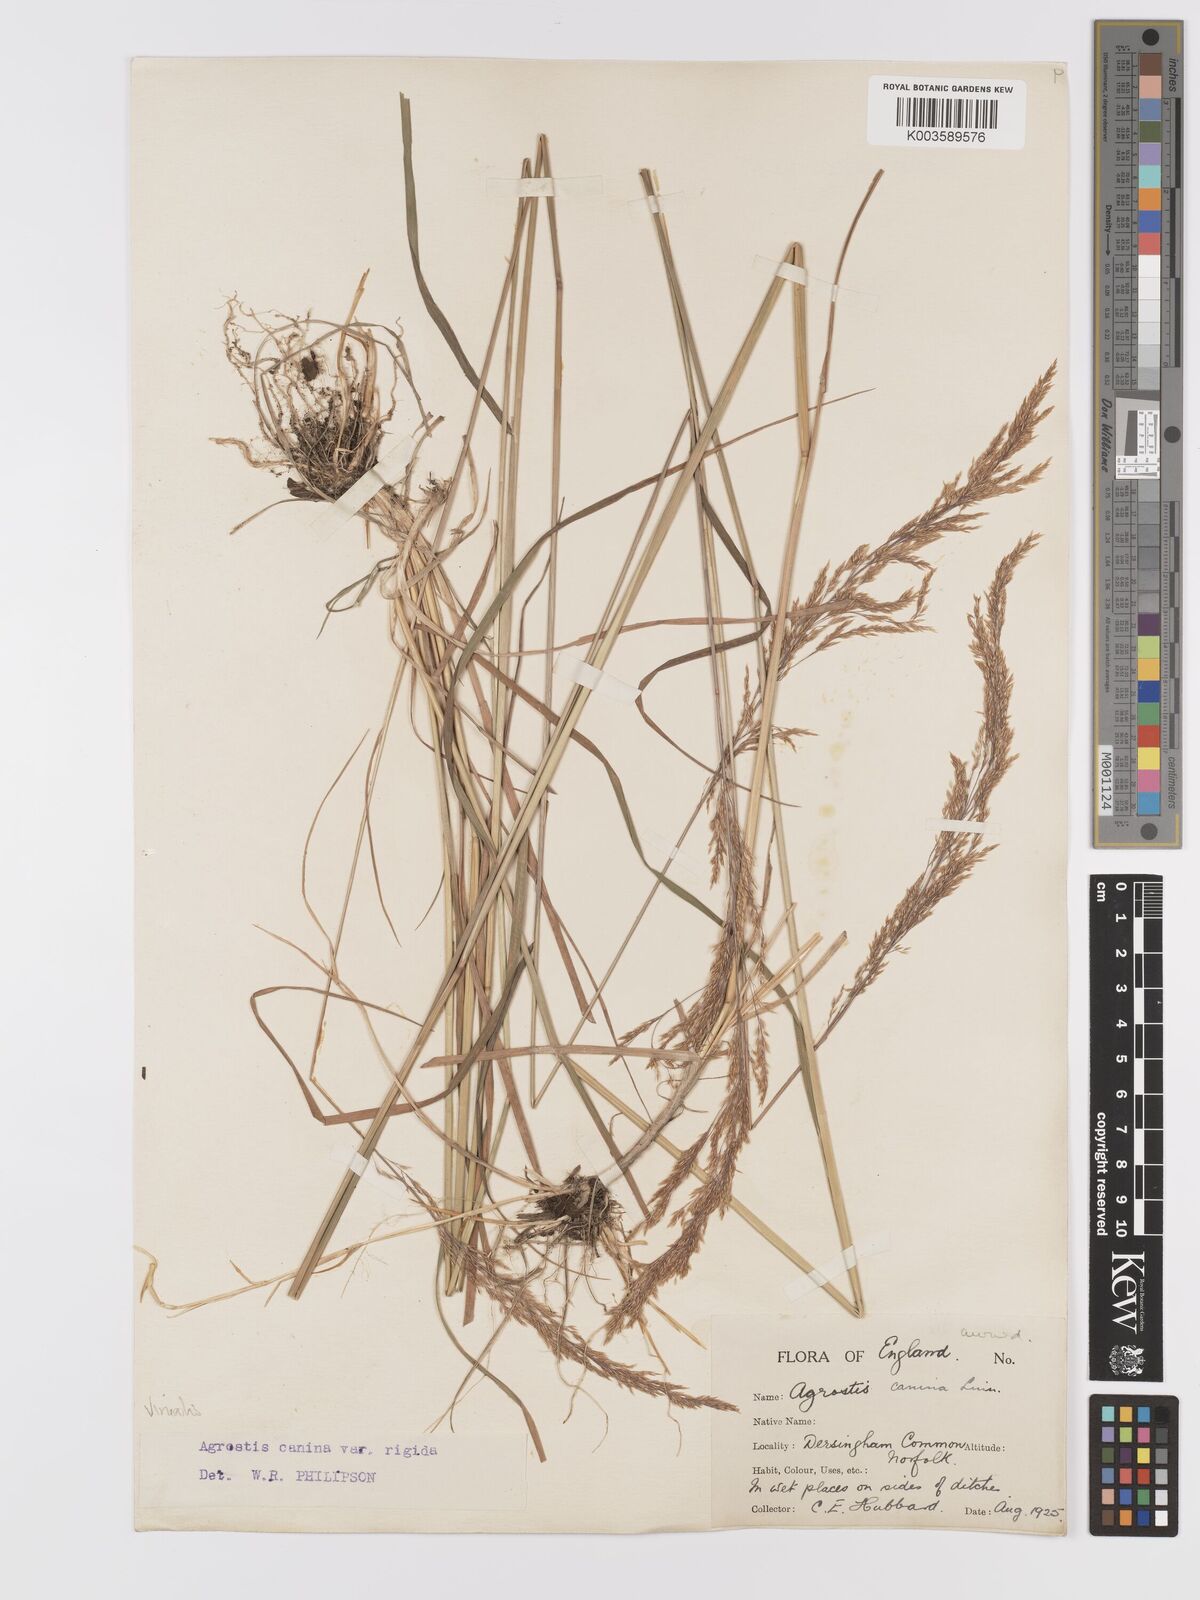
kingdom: Plantae
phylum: Tracheophyta
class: Liliopsida
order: Poales
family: Poaceae
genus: Agrostis
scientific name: Agrostis
